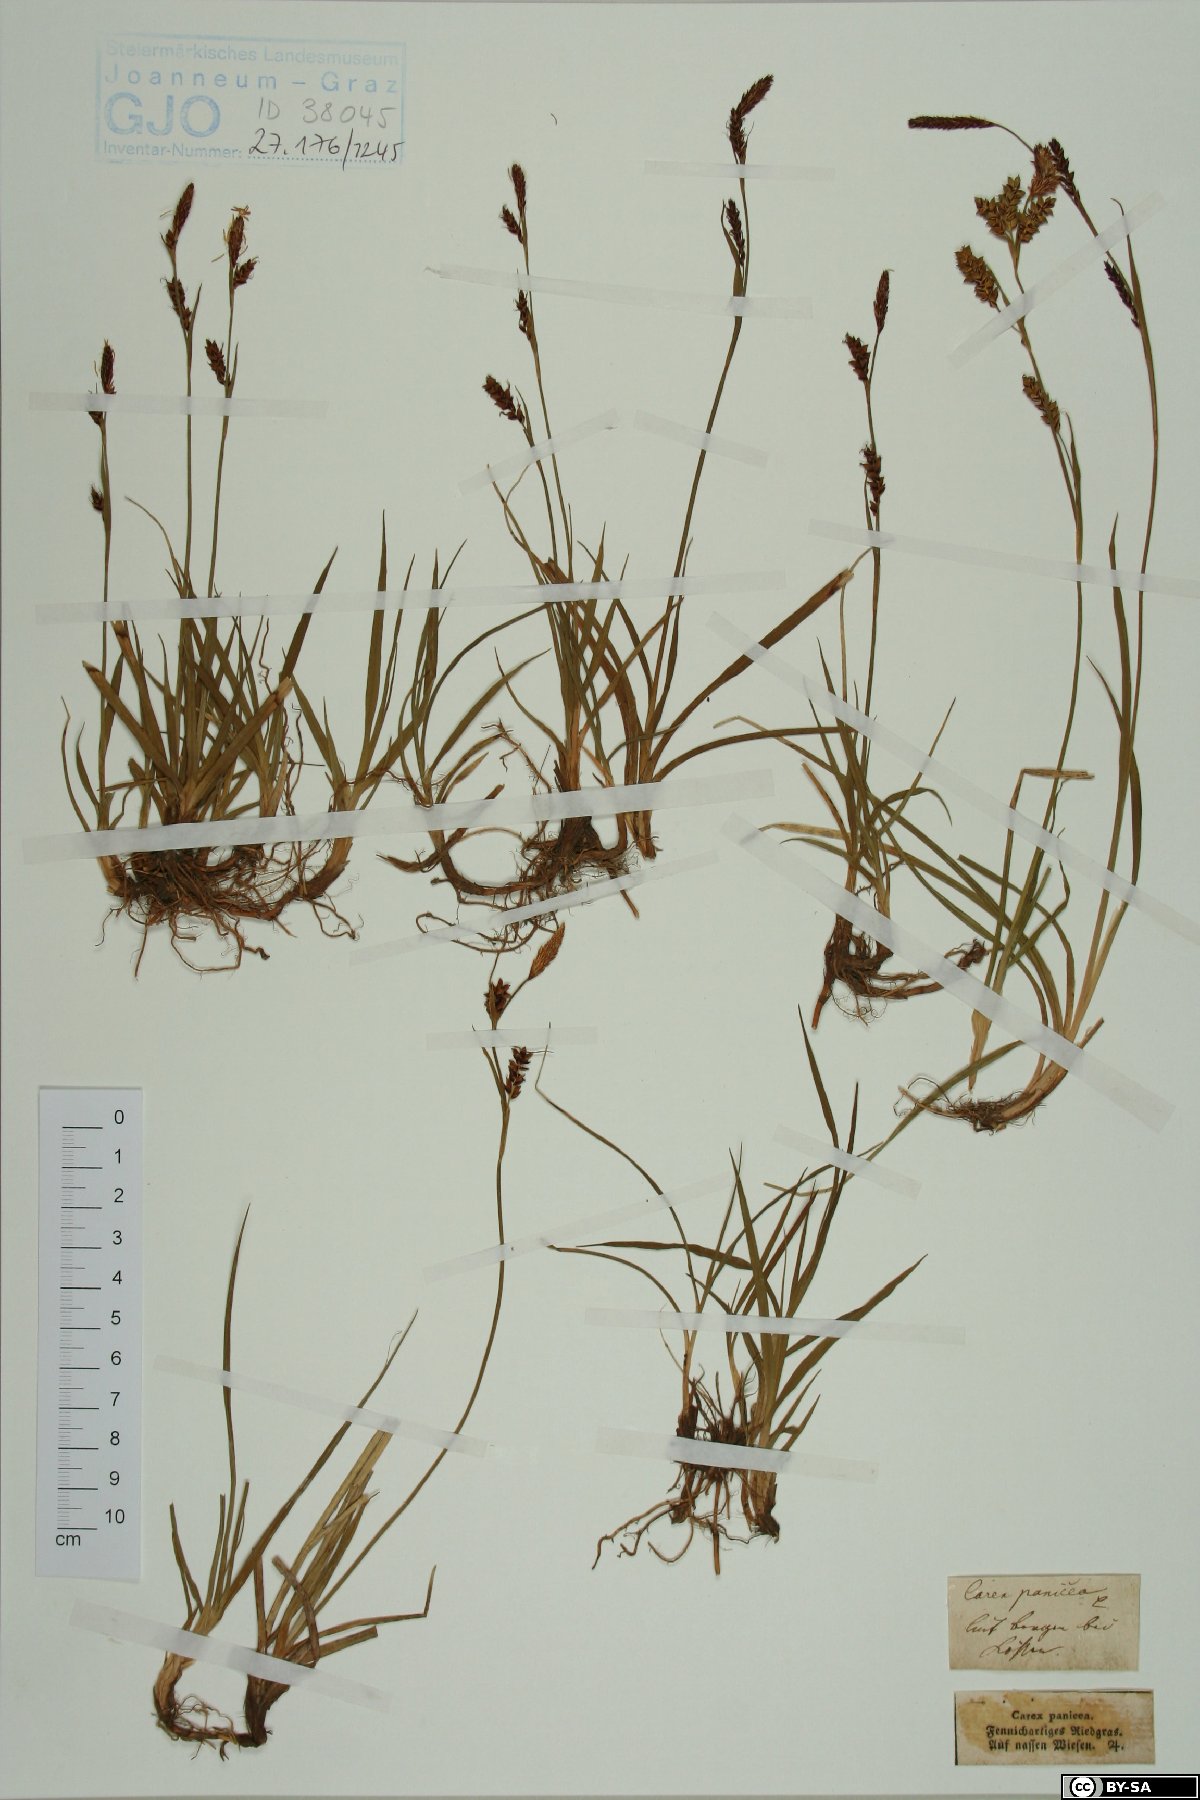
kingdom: Plantae
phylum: Tracheophyta
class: Liliopsida
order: Poales
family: Cyperaceae
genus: Carex
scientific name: Carex panicea
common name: Carnation sedge
